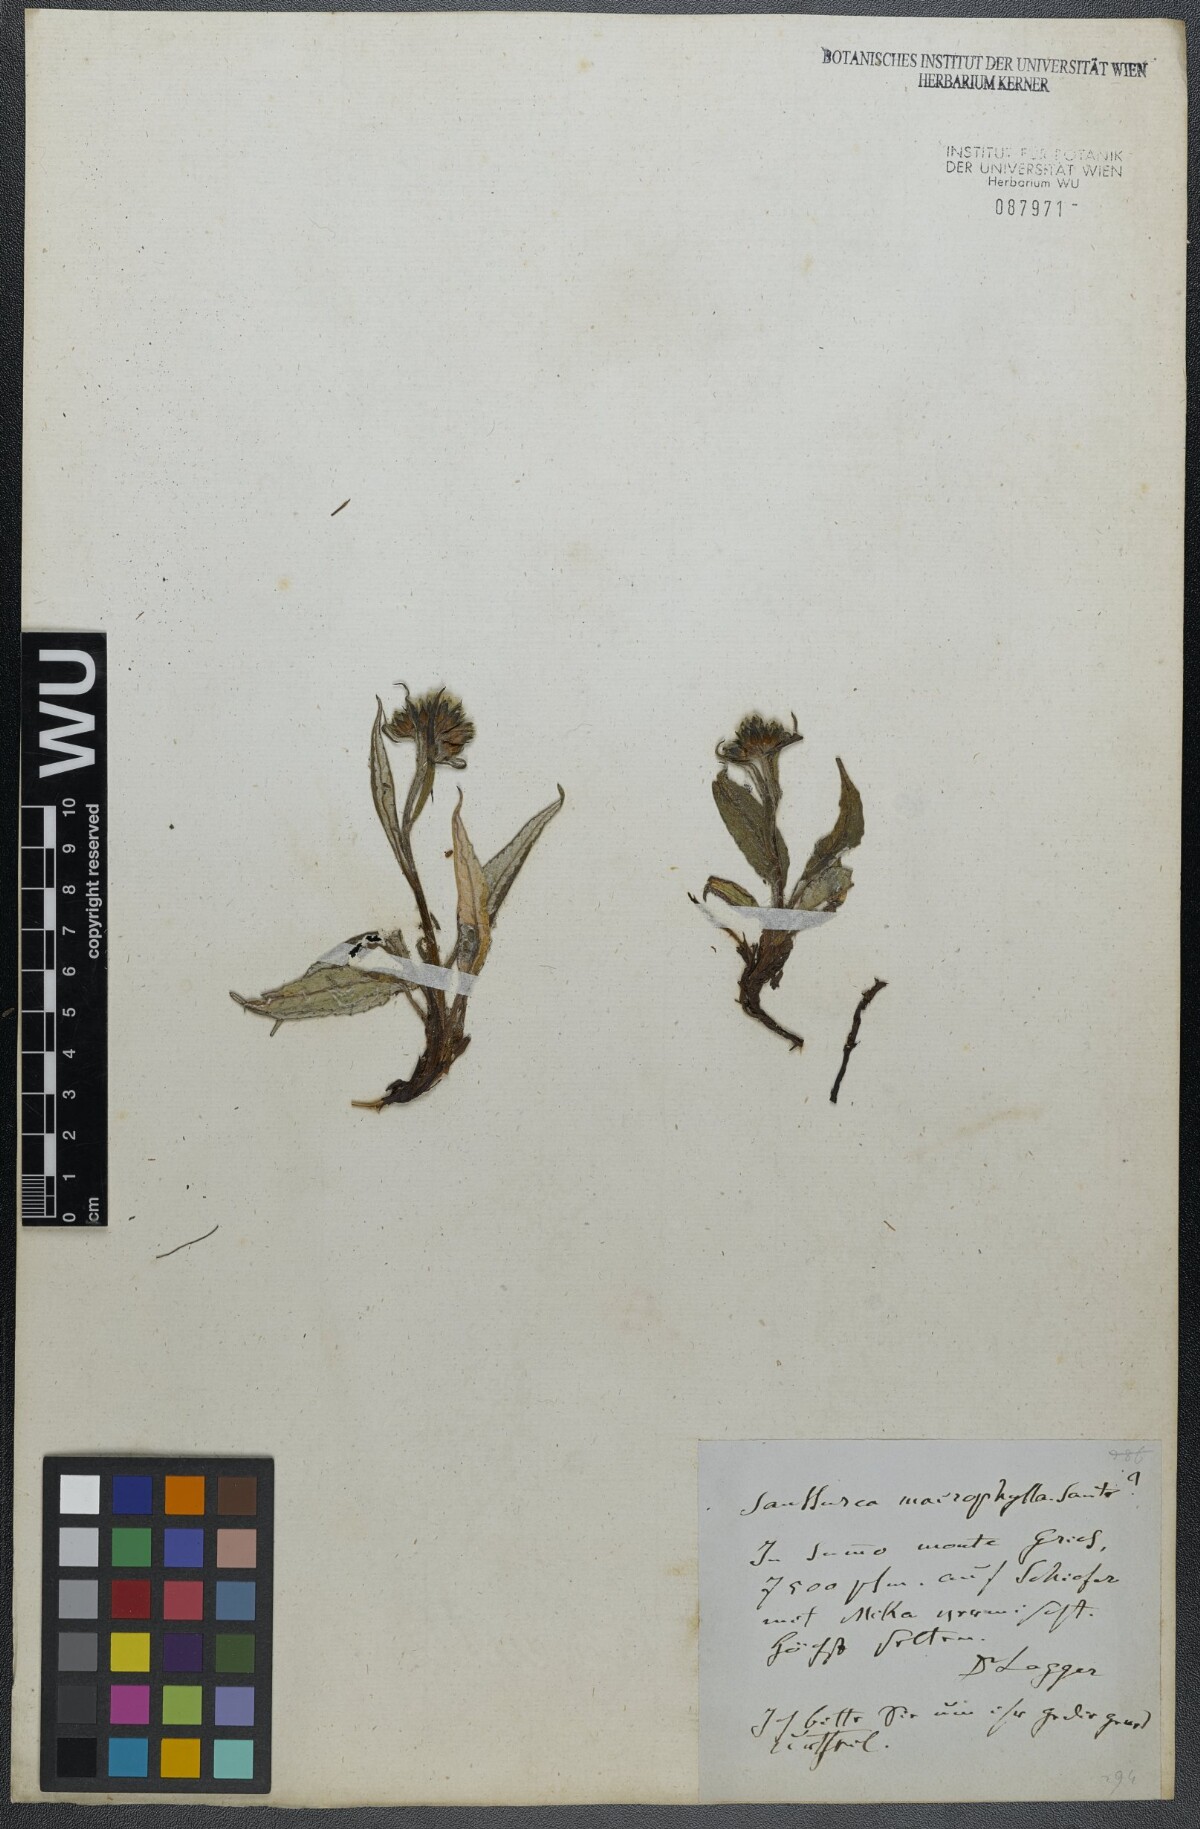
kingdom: Plantae
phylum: Tracheophyta
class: Magnoliopsida
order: Asterales
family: Asteraceae
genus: Saussurea
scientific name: Saussurea alpina
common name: Alpine saw-wort
